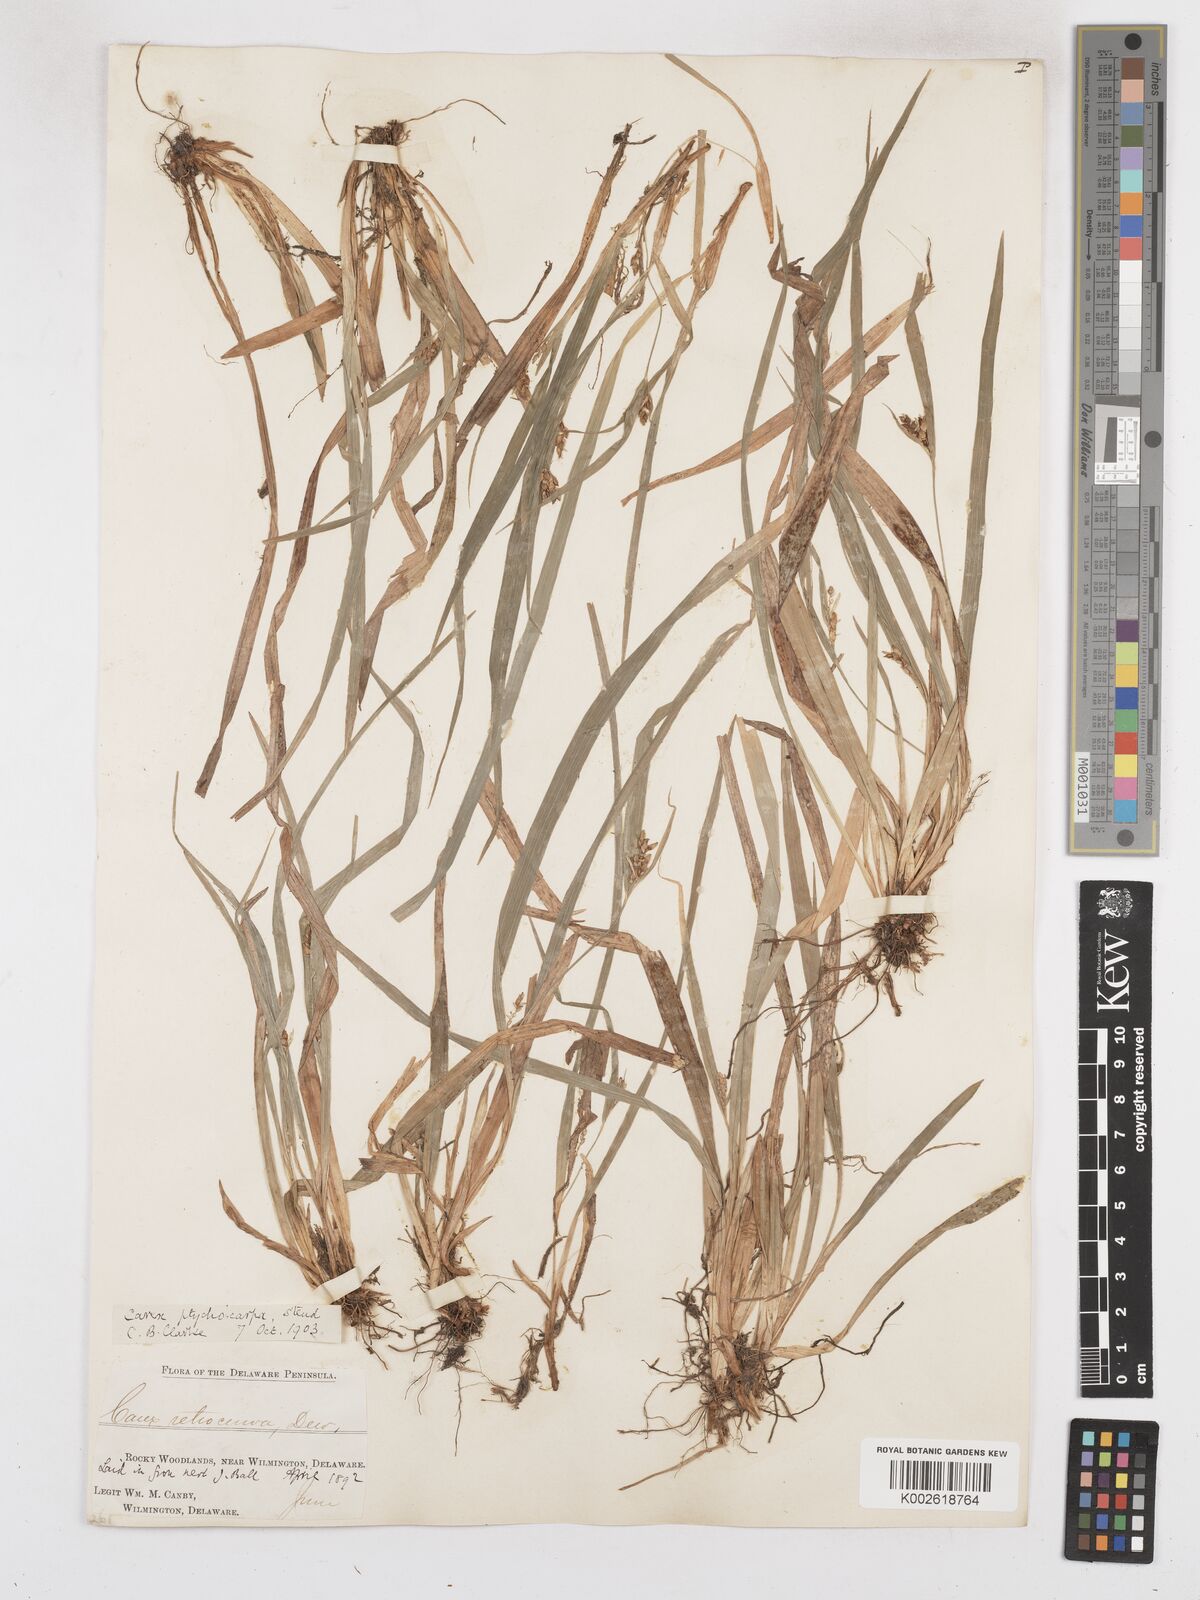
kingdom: Plantae
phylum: Tracheophyta
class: Liliopsida
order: Poales
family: Cyperaceae
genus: Carex
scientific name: Carex abscondita
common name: Thicket sedge
